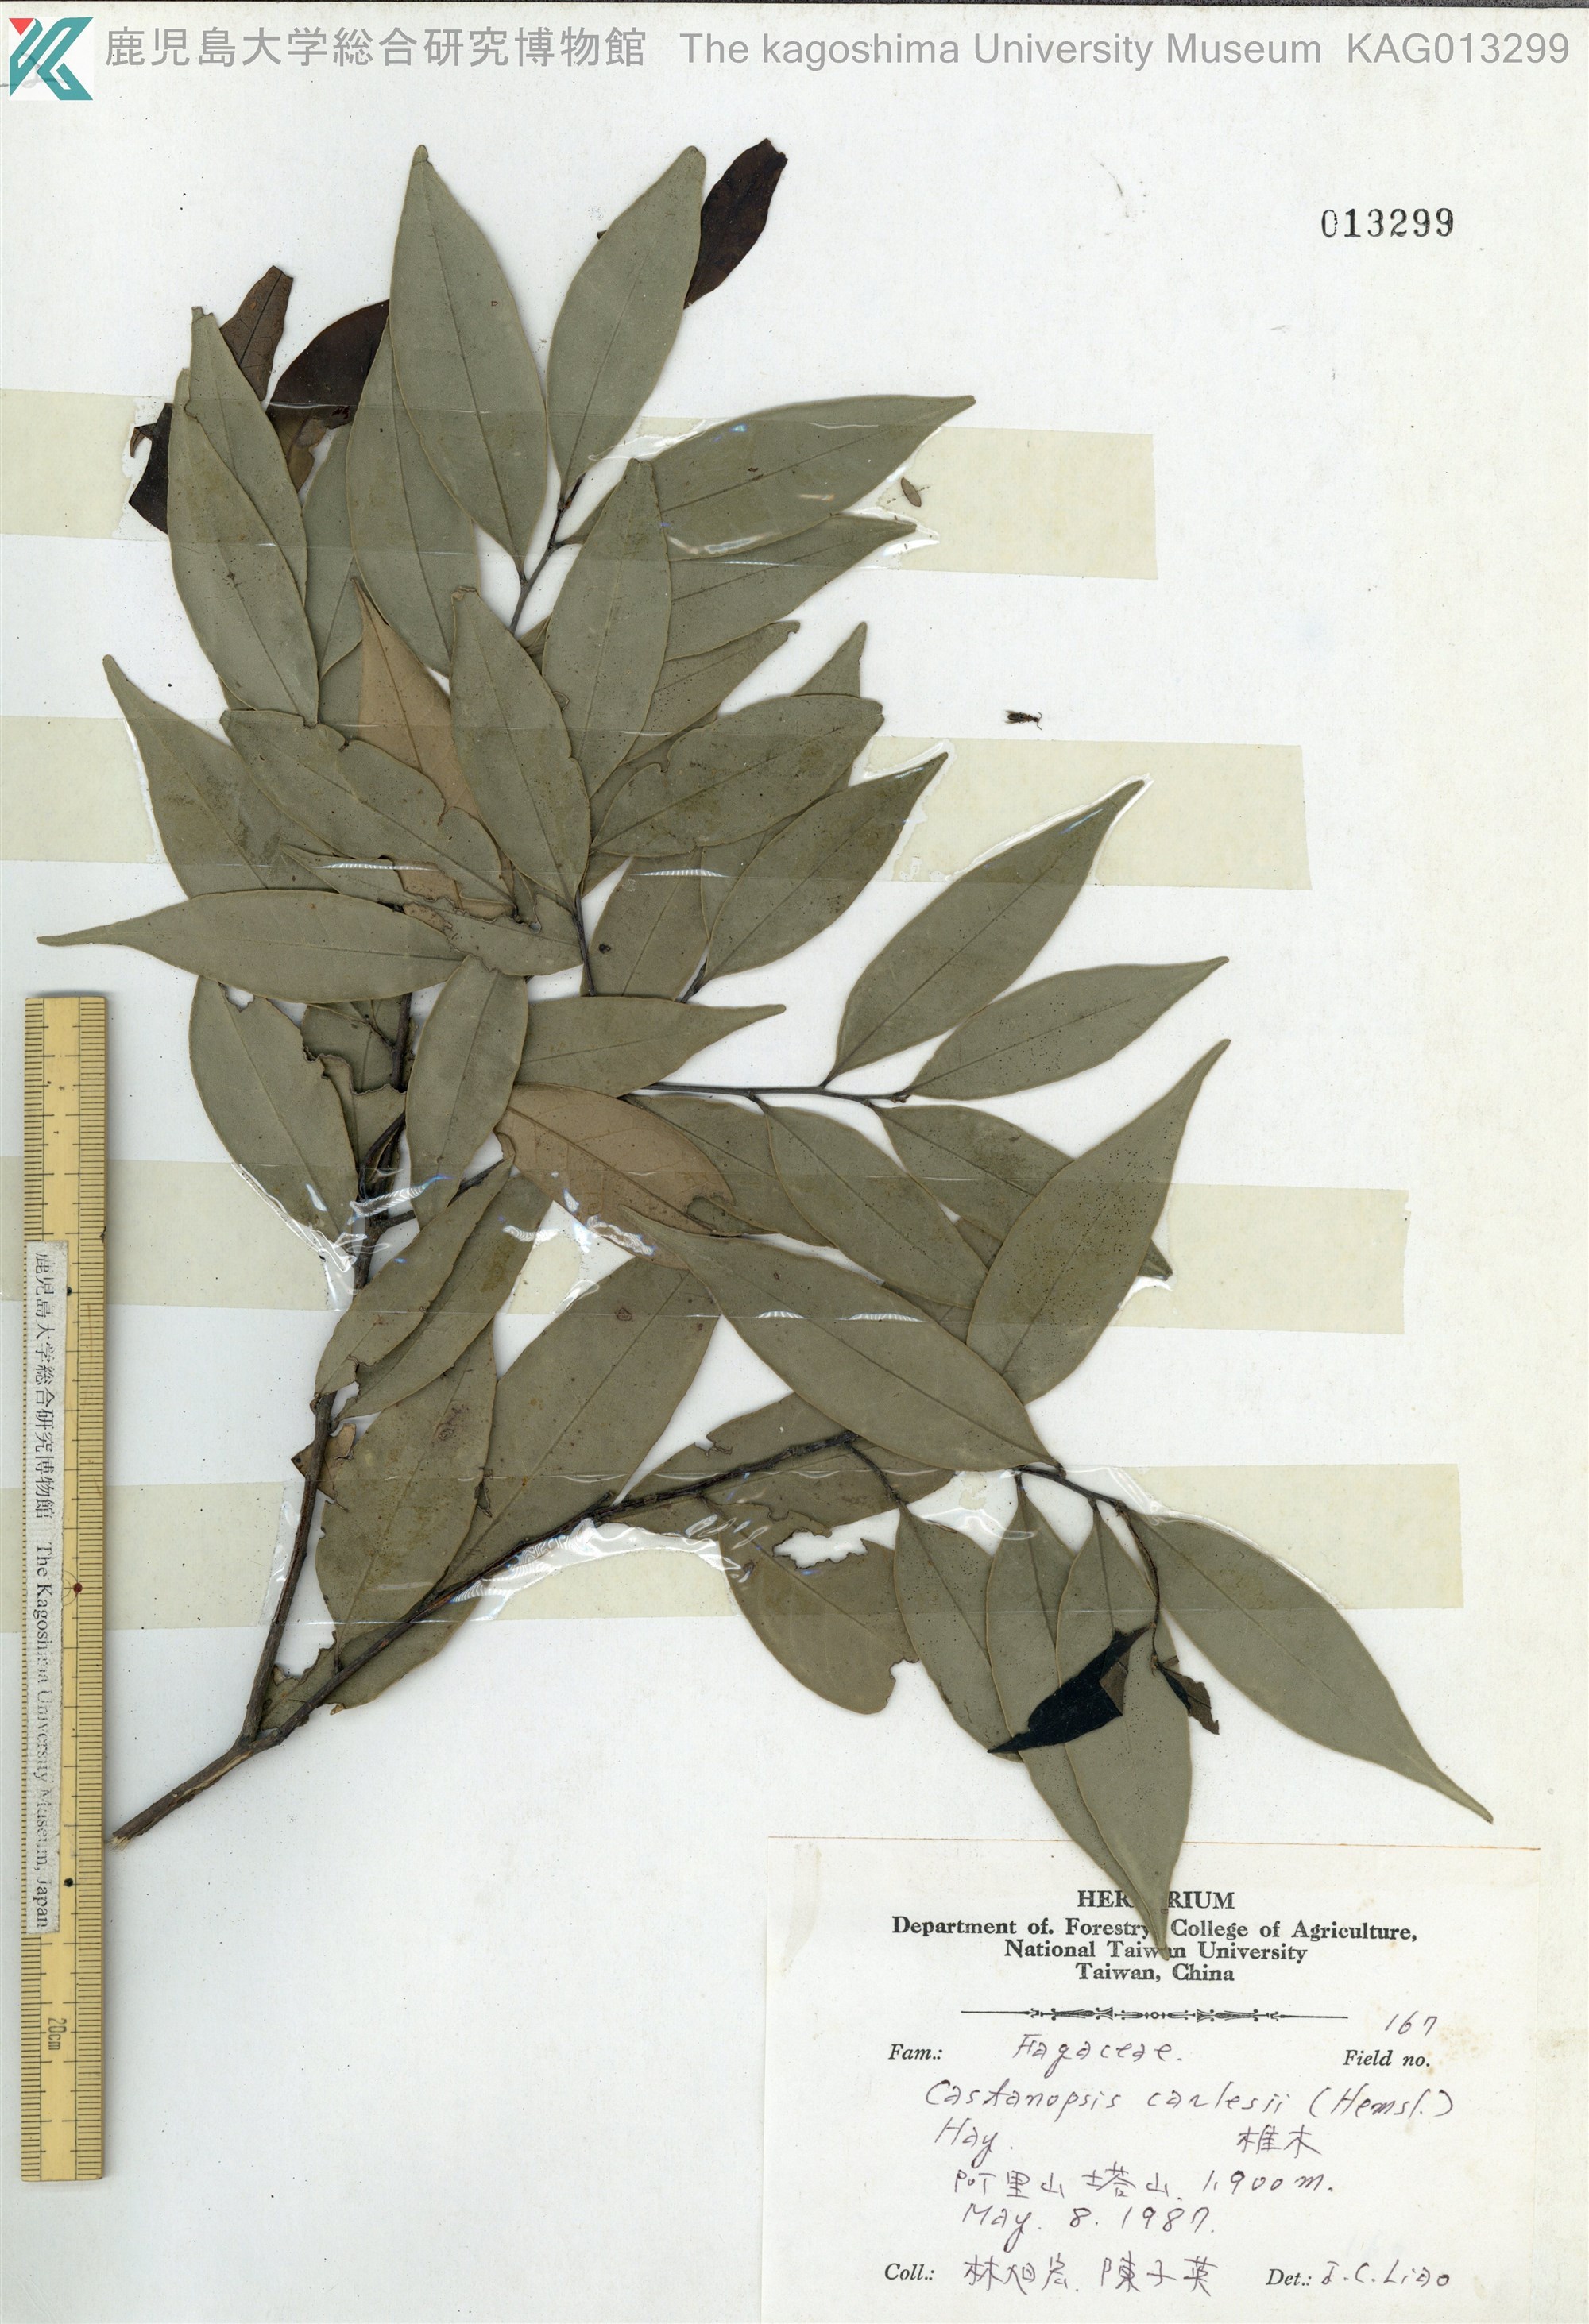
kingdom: Plantae
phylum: Tracheophyta
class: Magnoliopsida
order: Fagales
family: Fagaceae
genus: Castanopsis
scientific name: Castanopsis carlesii
